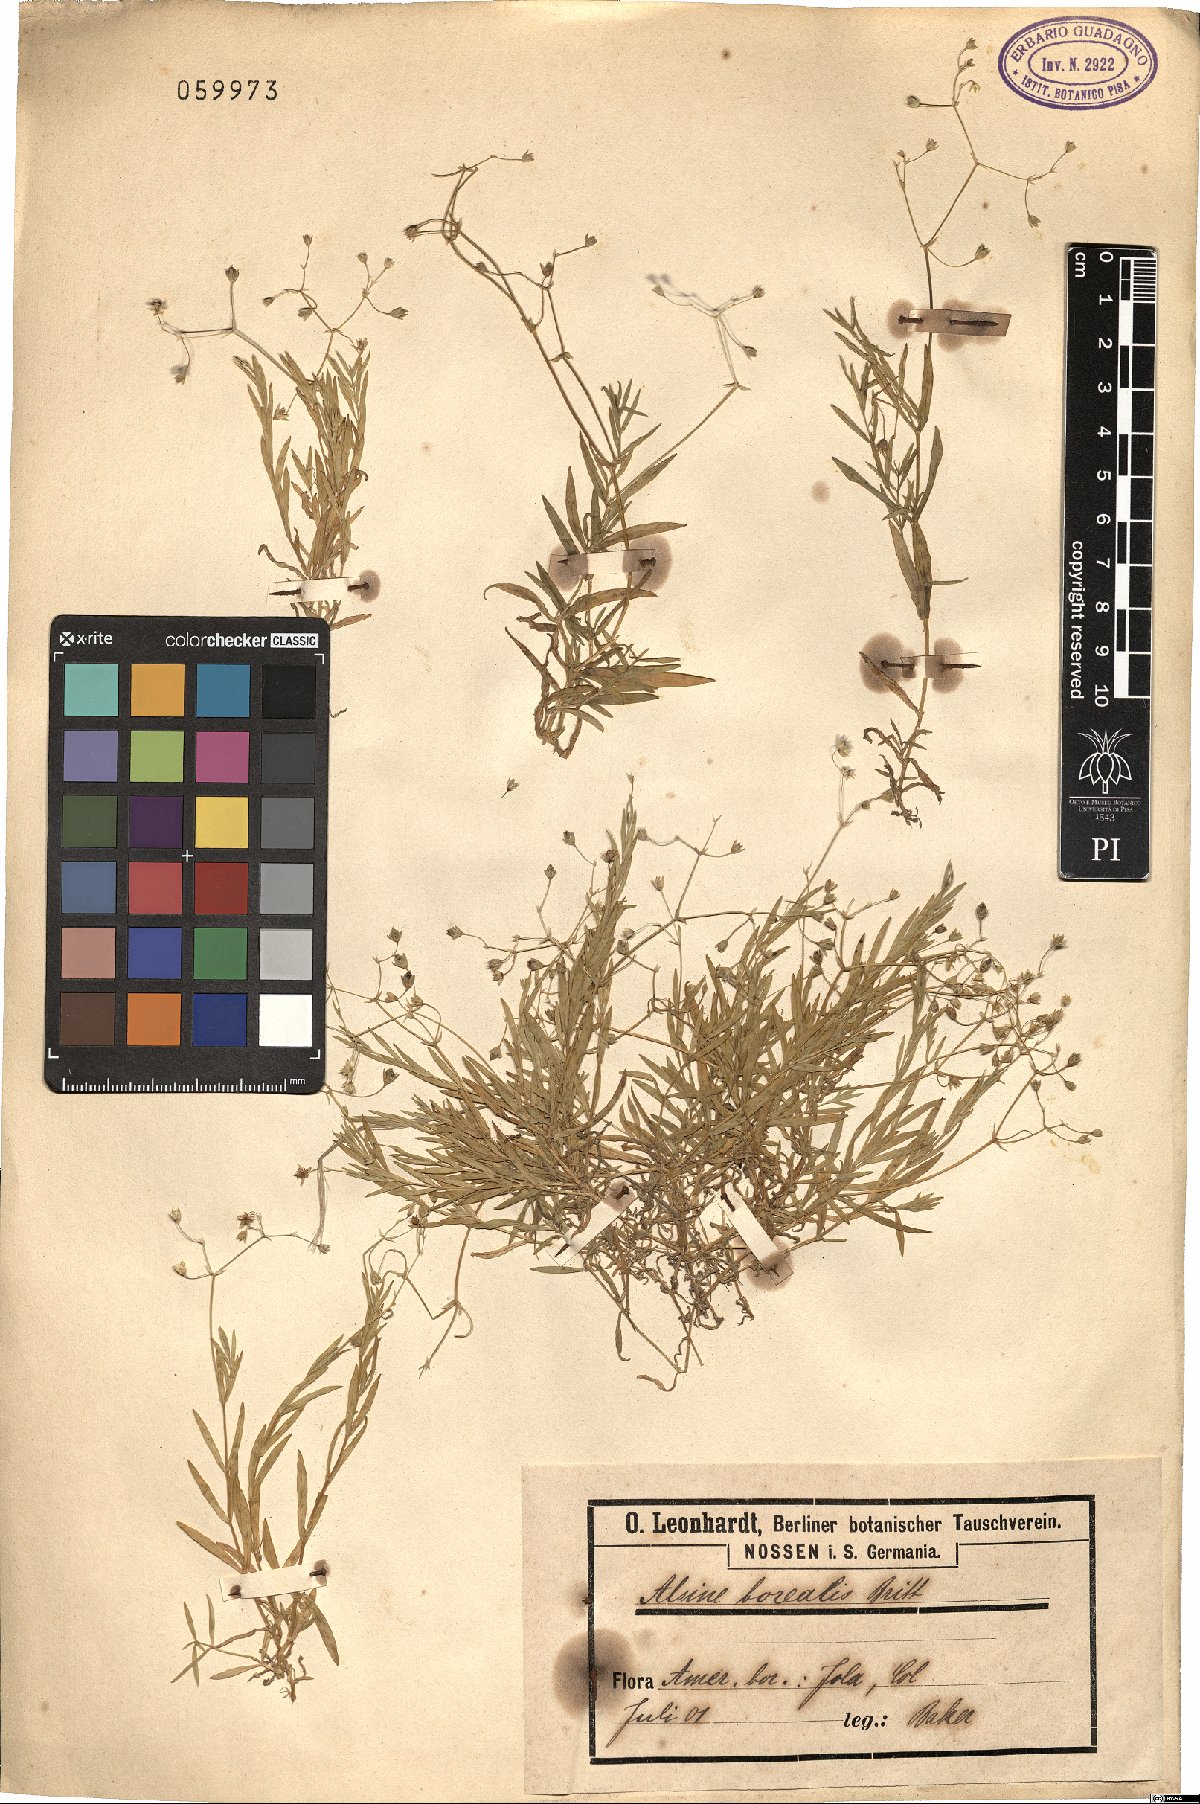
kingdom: Plantae
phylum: Tracheophyta
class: Magnoliopsida
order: Caryophyllales
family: Caryophyllaceae
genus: Stellaria
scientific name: Stellaria borealis
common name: Boreal starwort
